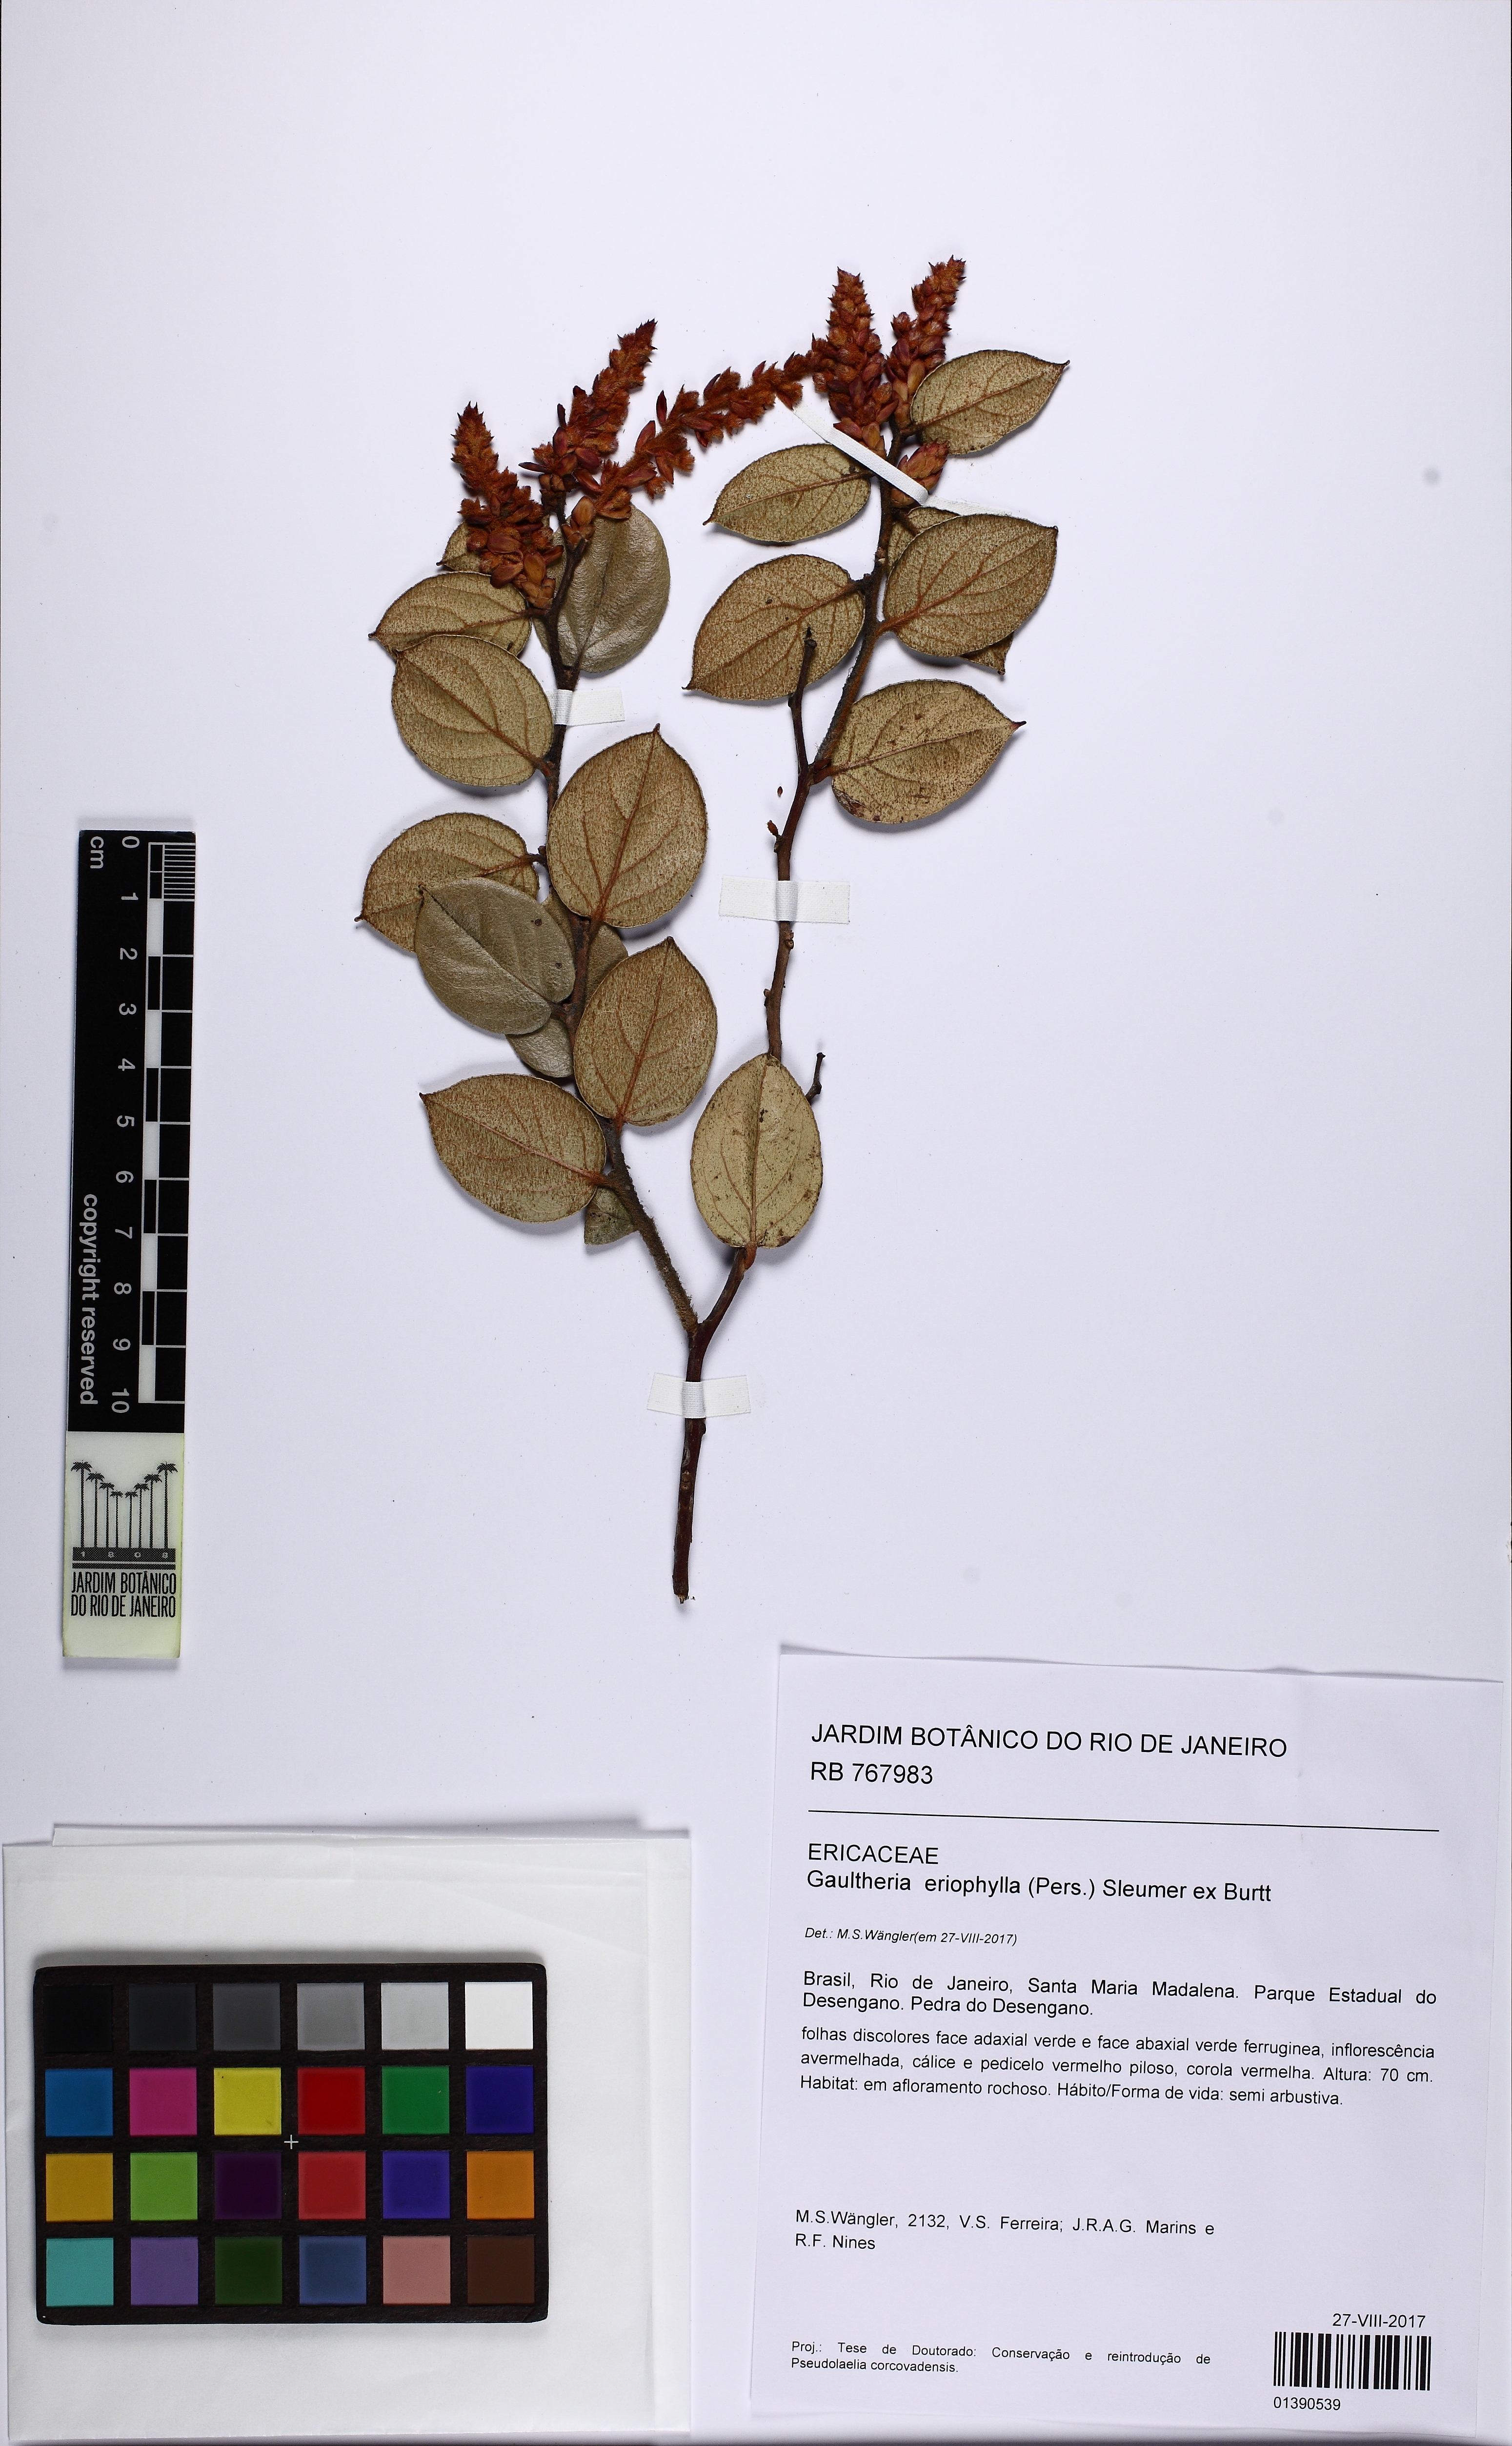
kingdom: Plantae
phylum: Tracheophyta
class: Magnoliopsida
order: Ericales
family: Ericaceae
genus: Gaultheria
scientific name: Gaultheria eriophylla
